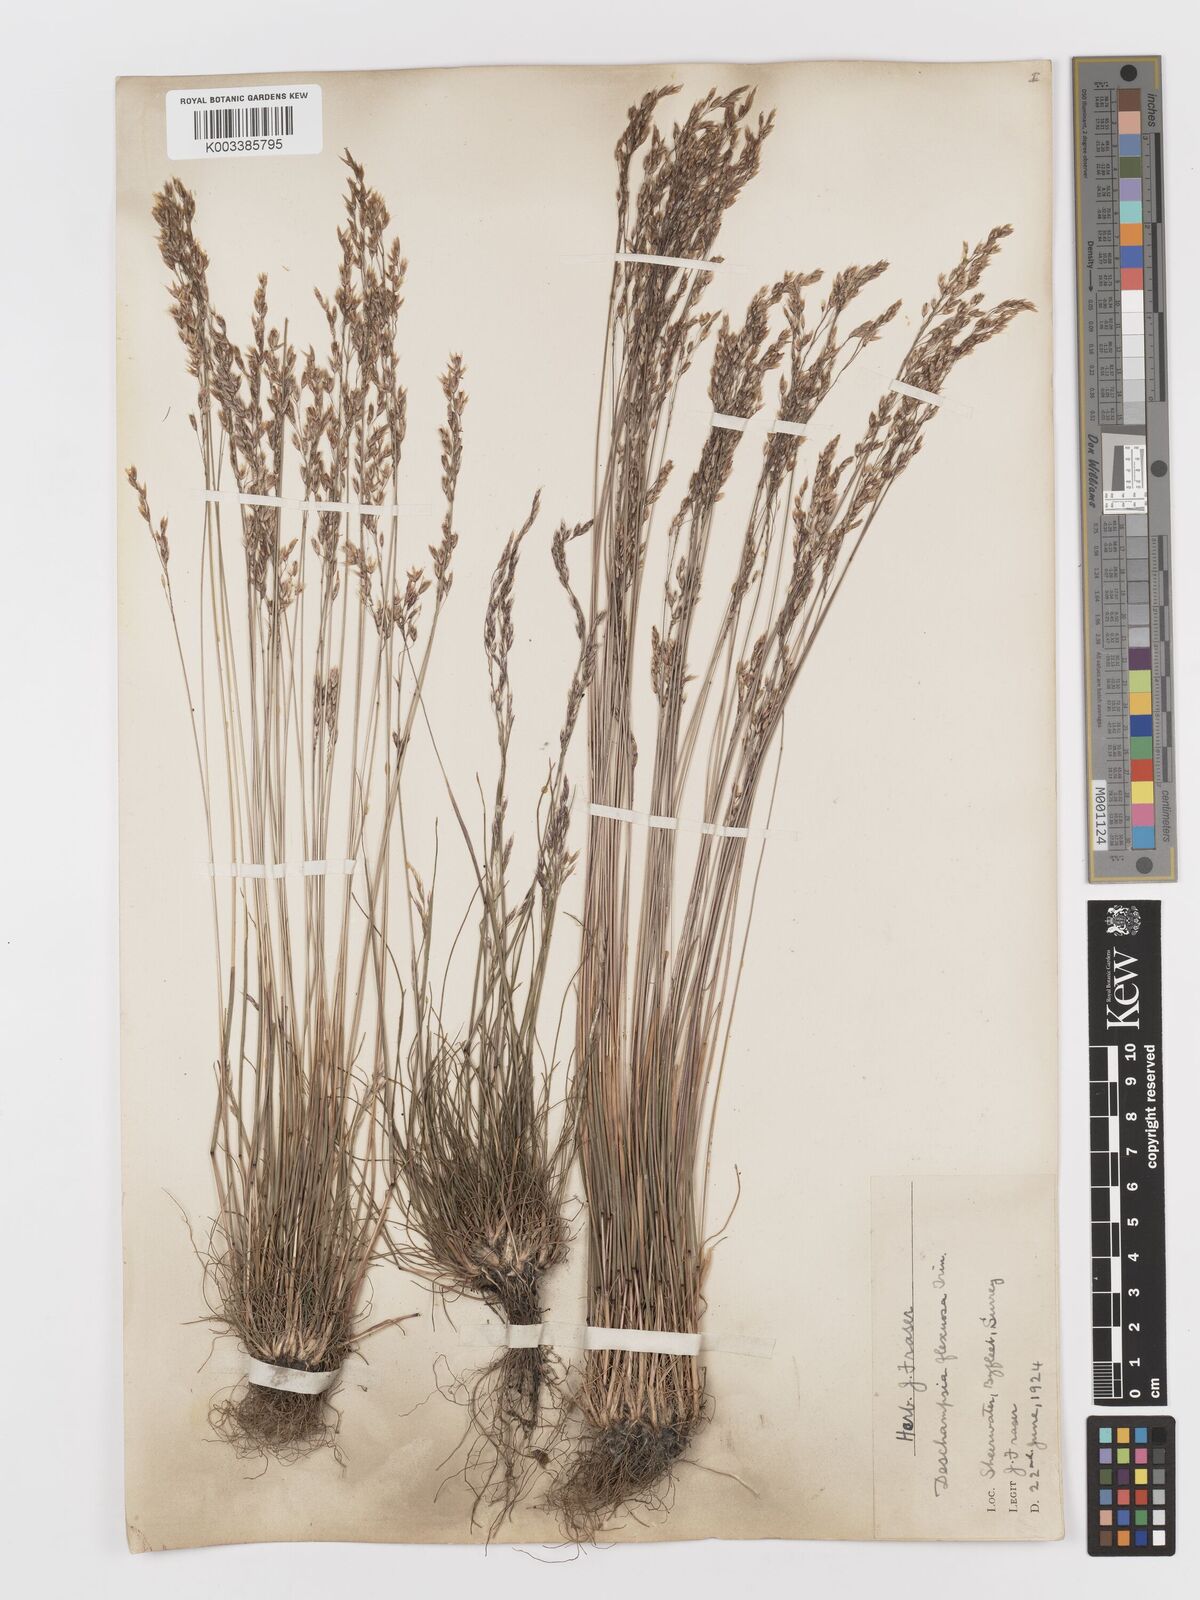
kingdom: Plantae
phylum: Tracheophyta
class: Liliopsida
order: Poales
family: Poaceae
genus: Avenella
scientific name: Avenella flexuosa
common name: Wavy hairgrass
